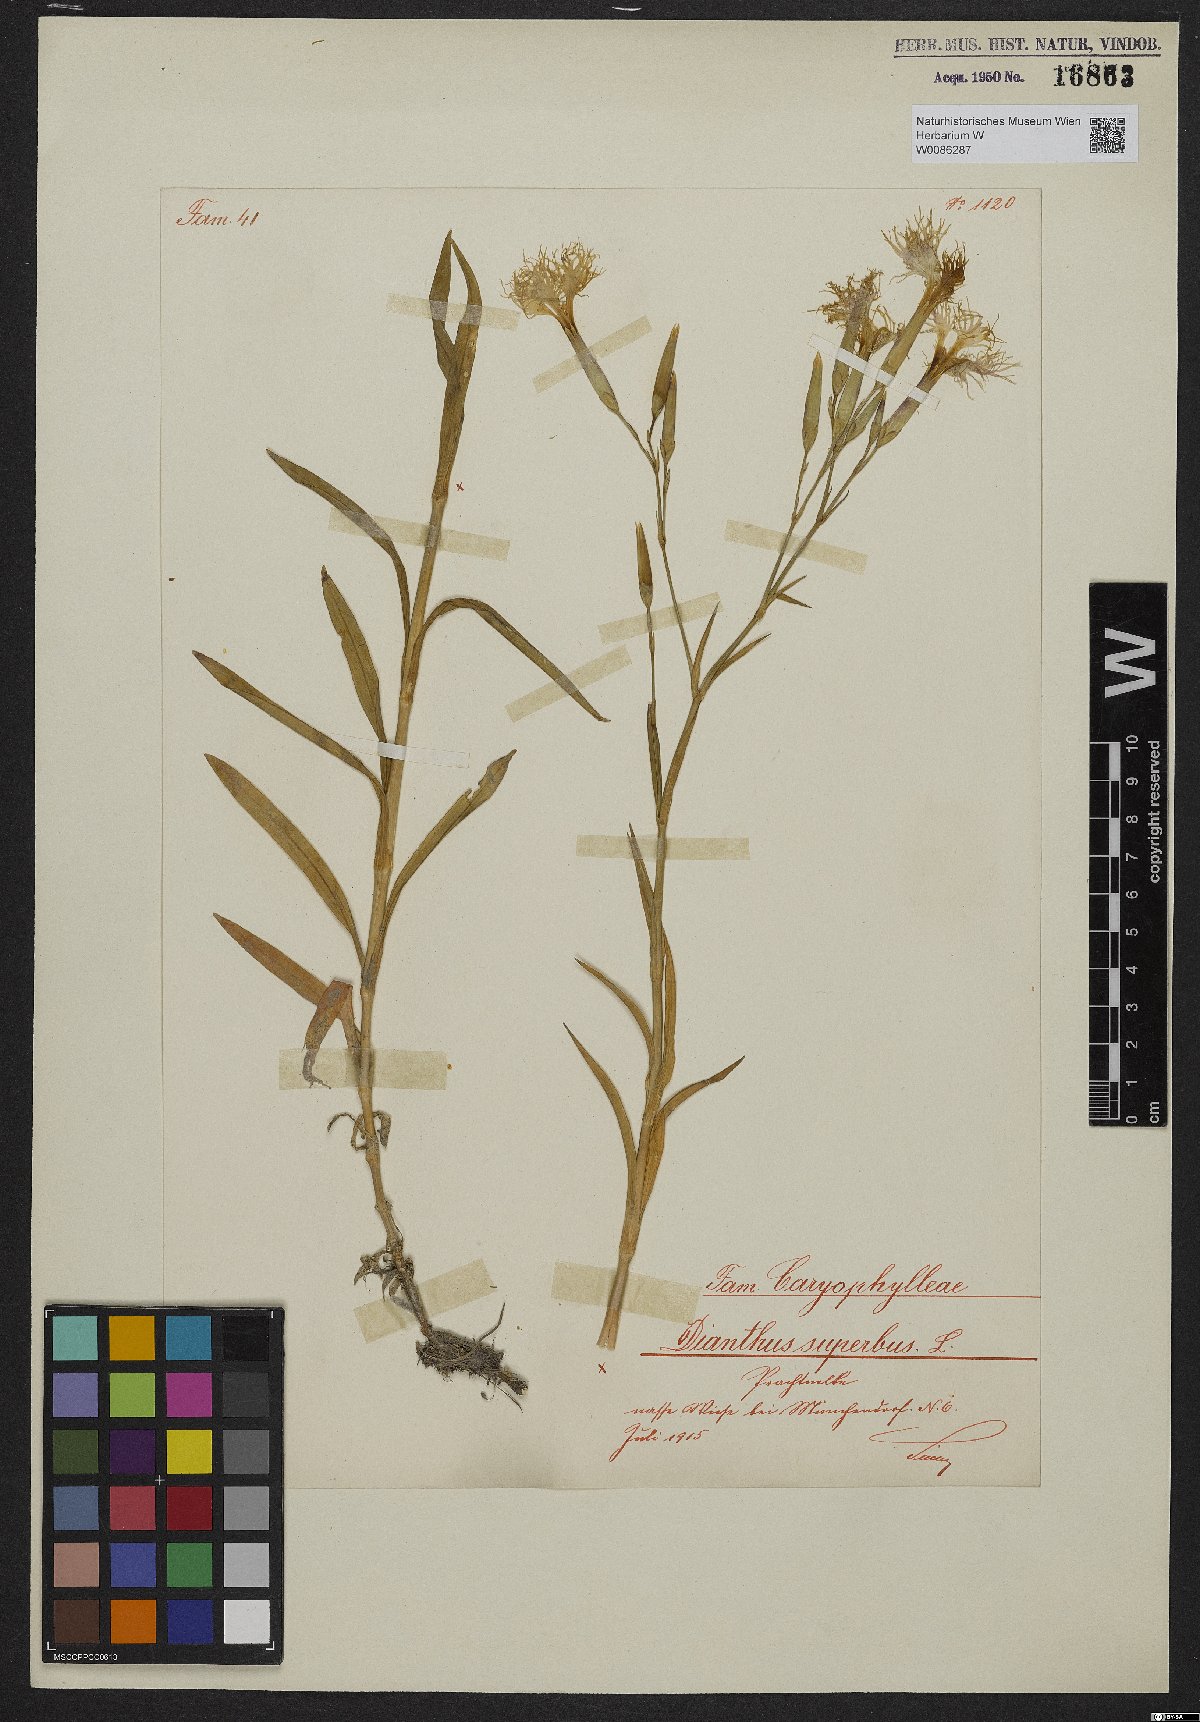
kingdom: Plantae
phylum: Tracheophyta
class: Magnoliopsida
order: Caryophyllales
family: Caryophyllaceae
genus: Dianthus
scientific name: Dianthus superbus
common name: Fringed pink
